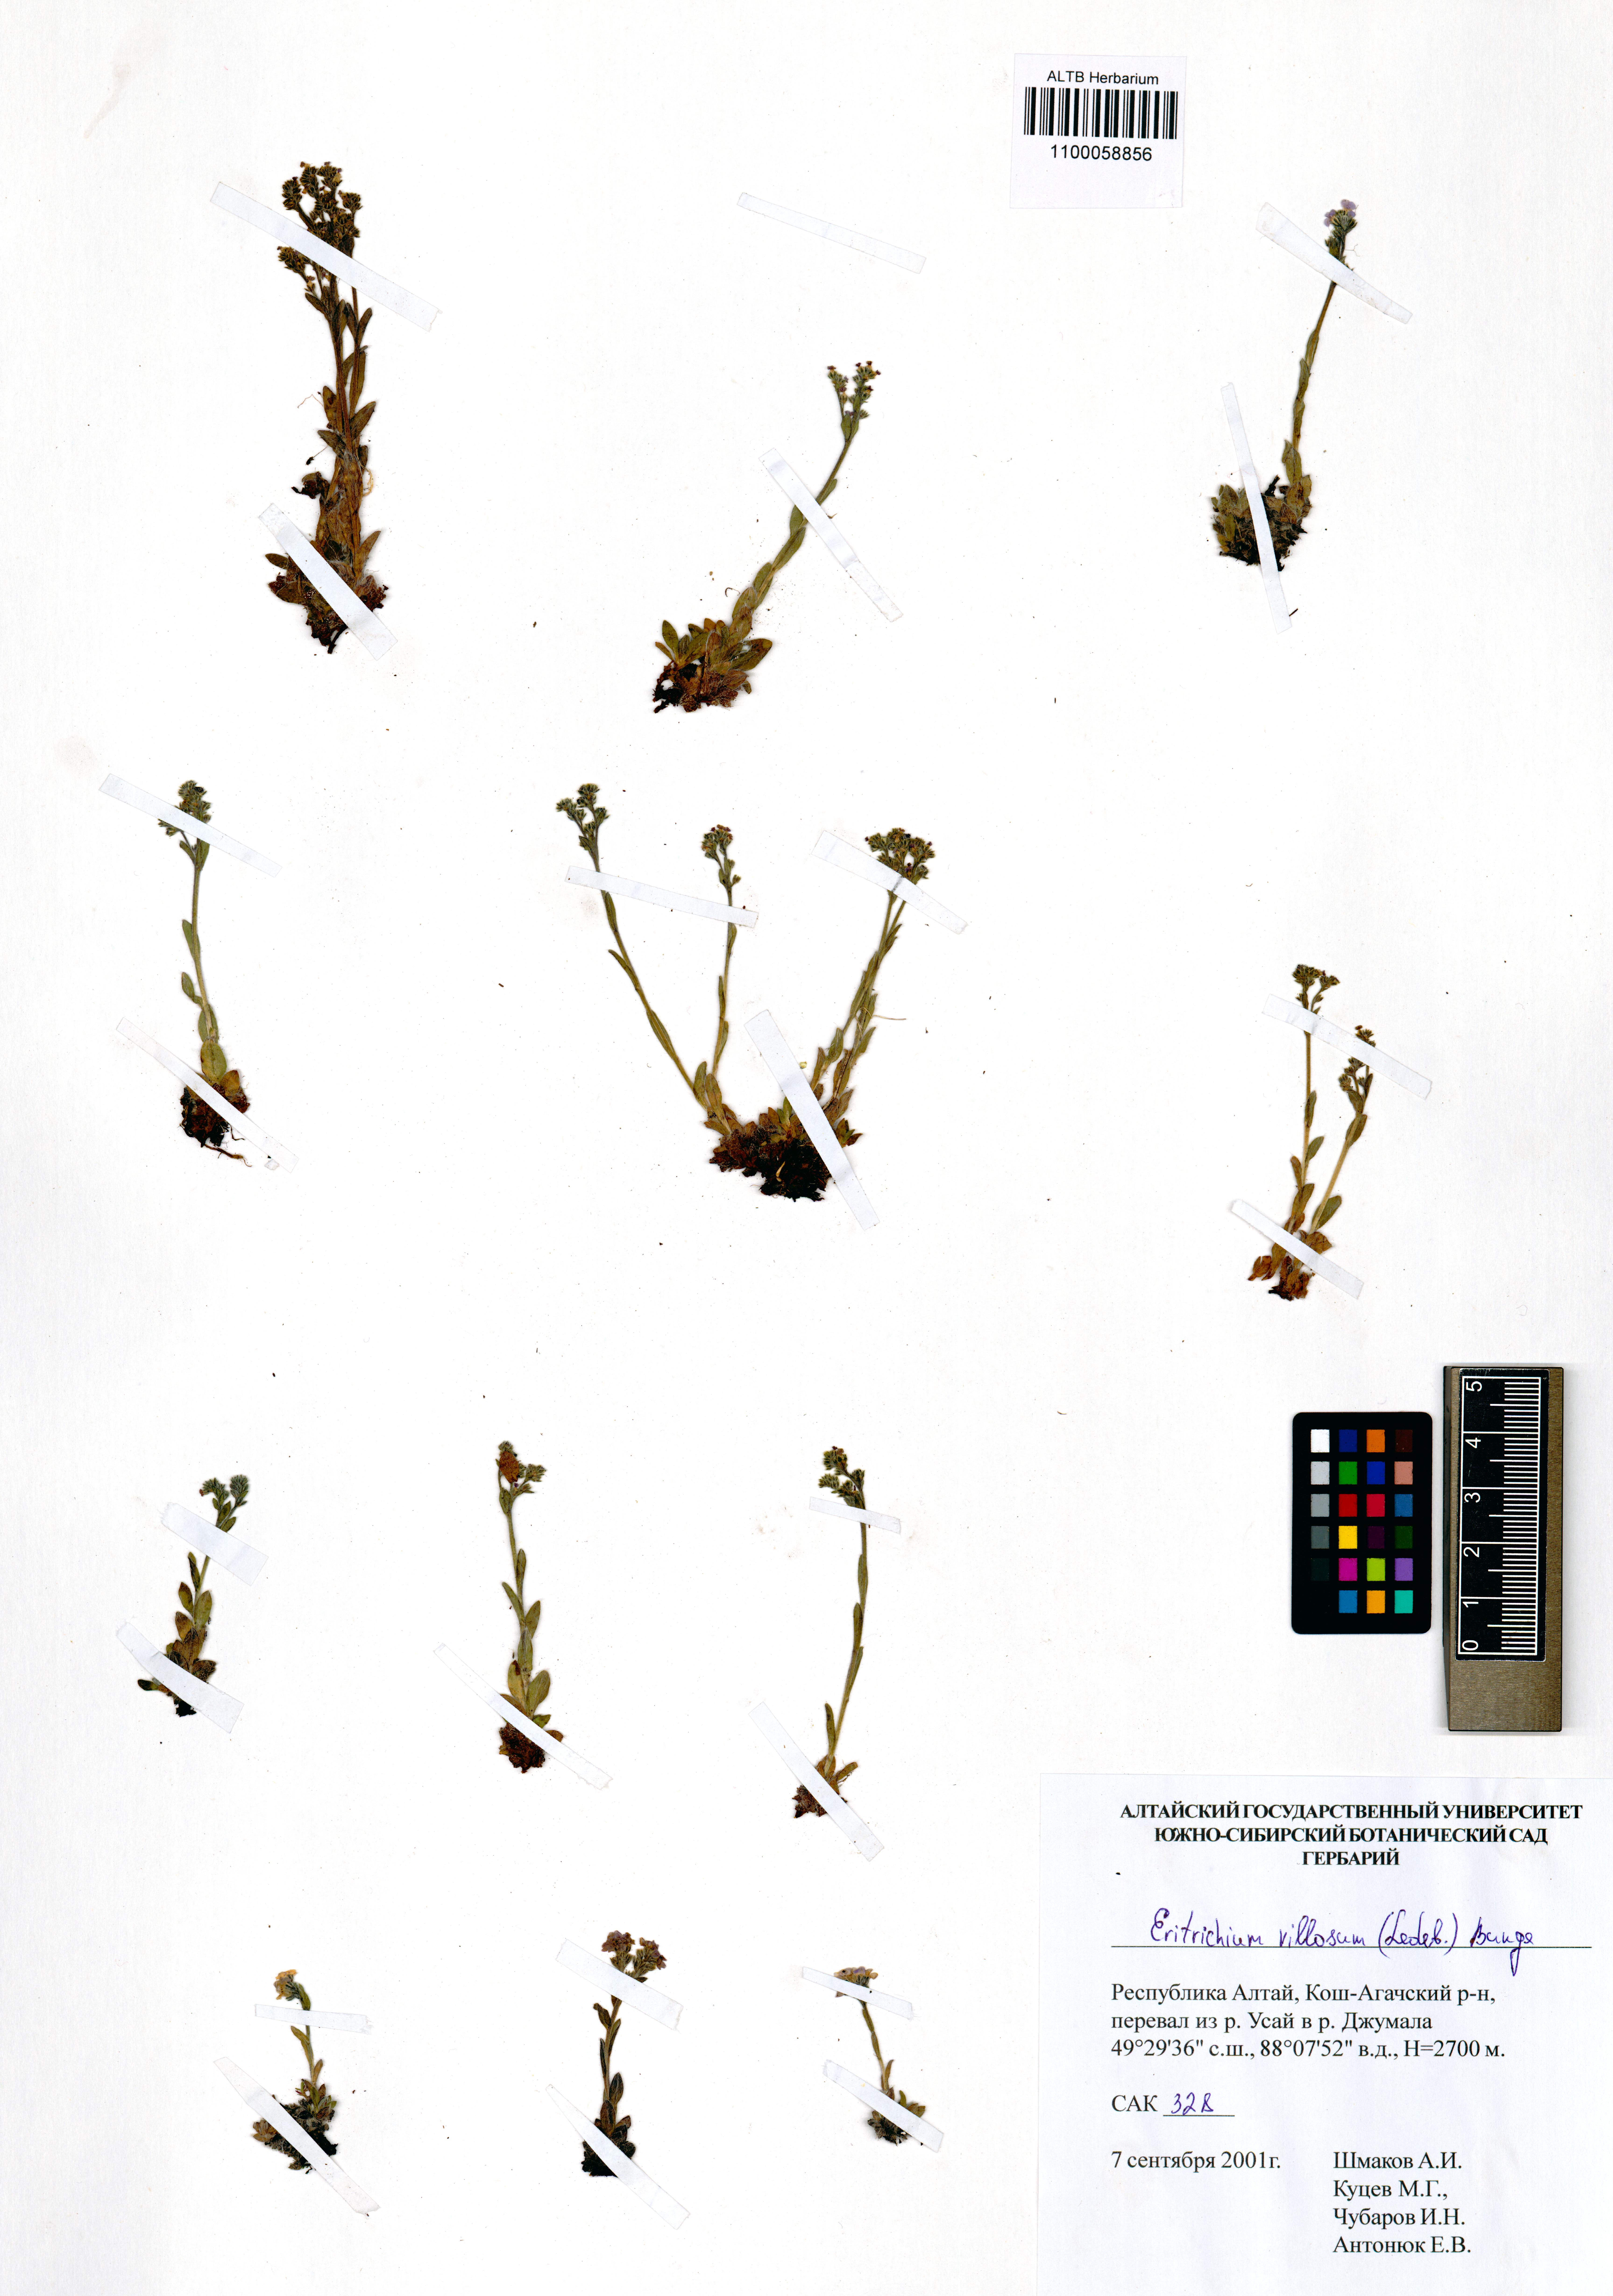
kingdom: Plantae
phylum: Tracheophyta
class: Magnoliopsida
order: Boraginales
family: Boraginaceae
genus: Eritrichium
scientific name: Eritrichium villosum
